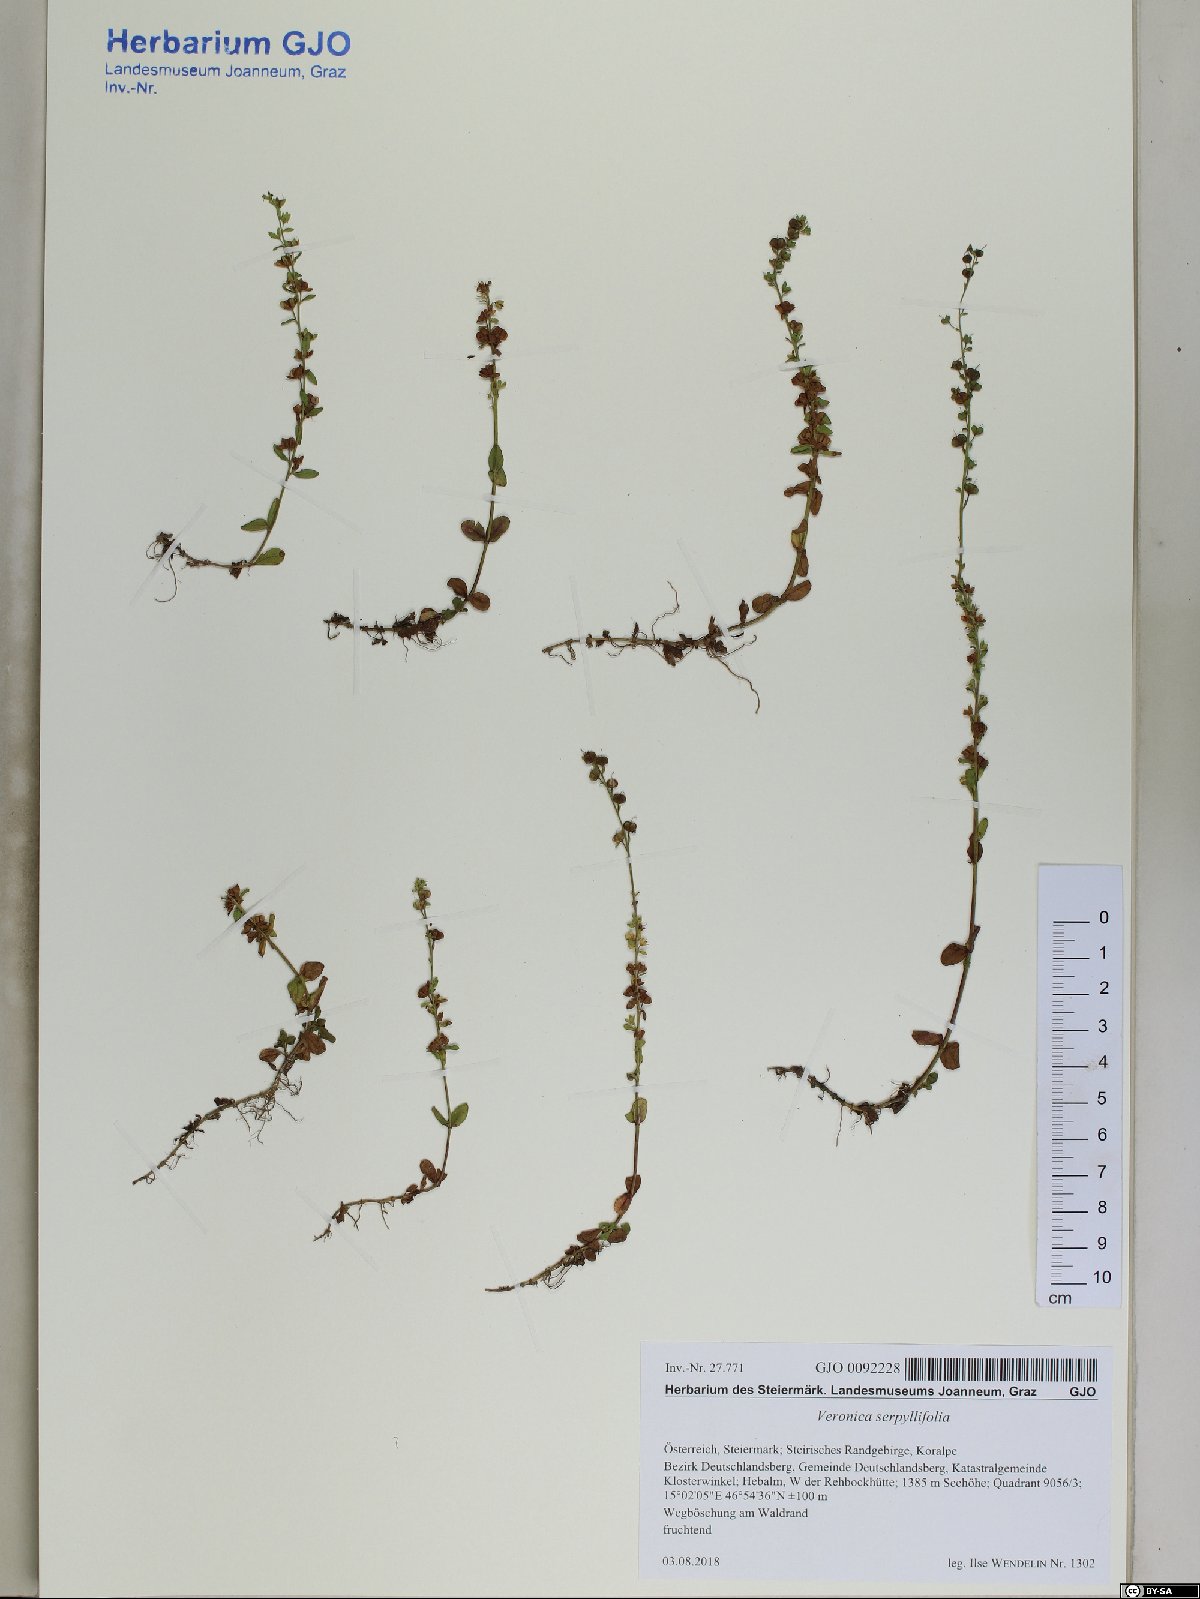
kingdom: Plantae
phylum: Tracheophyta
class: Magnoliopsida
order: Lamiales
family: Plantaginaceae
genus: Veronica
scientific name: Veronica serpyllifolia
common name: Thyme-leaved speedwell
